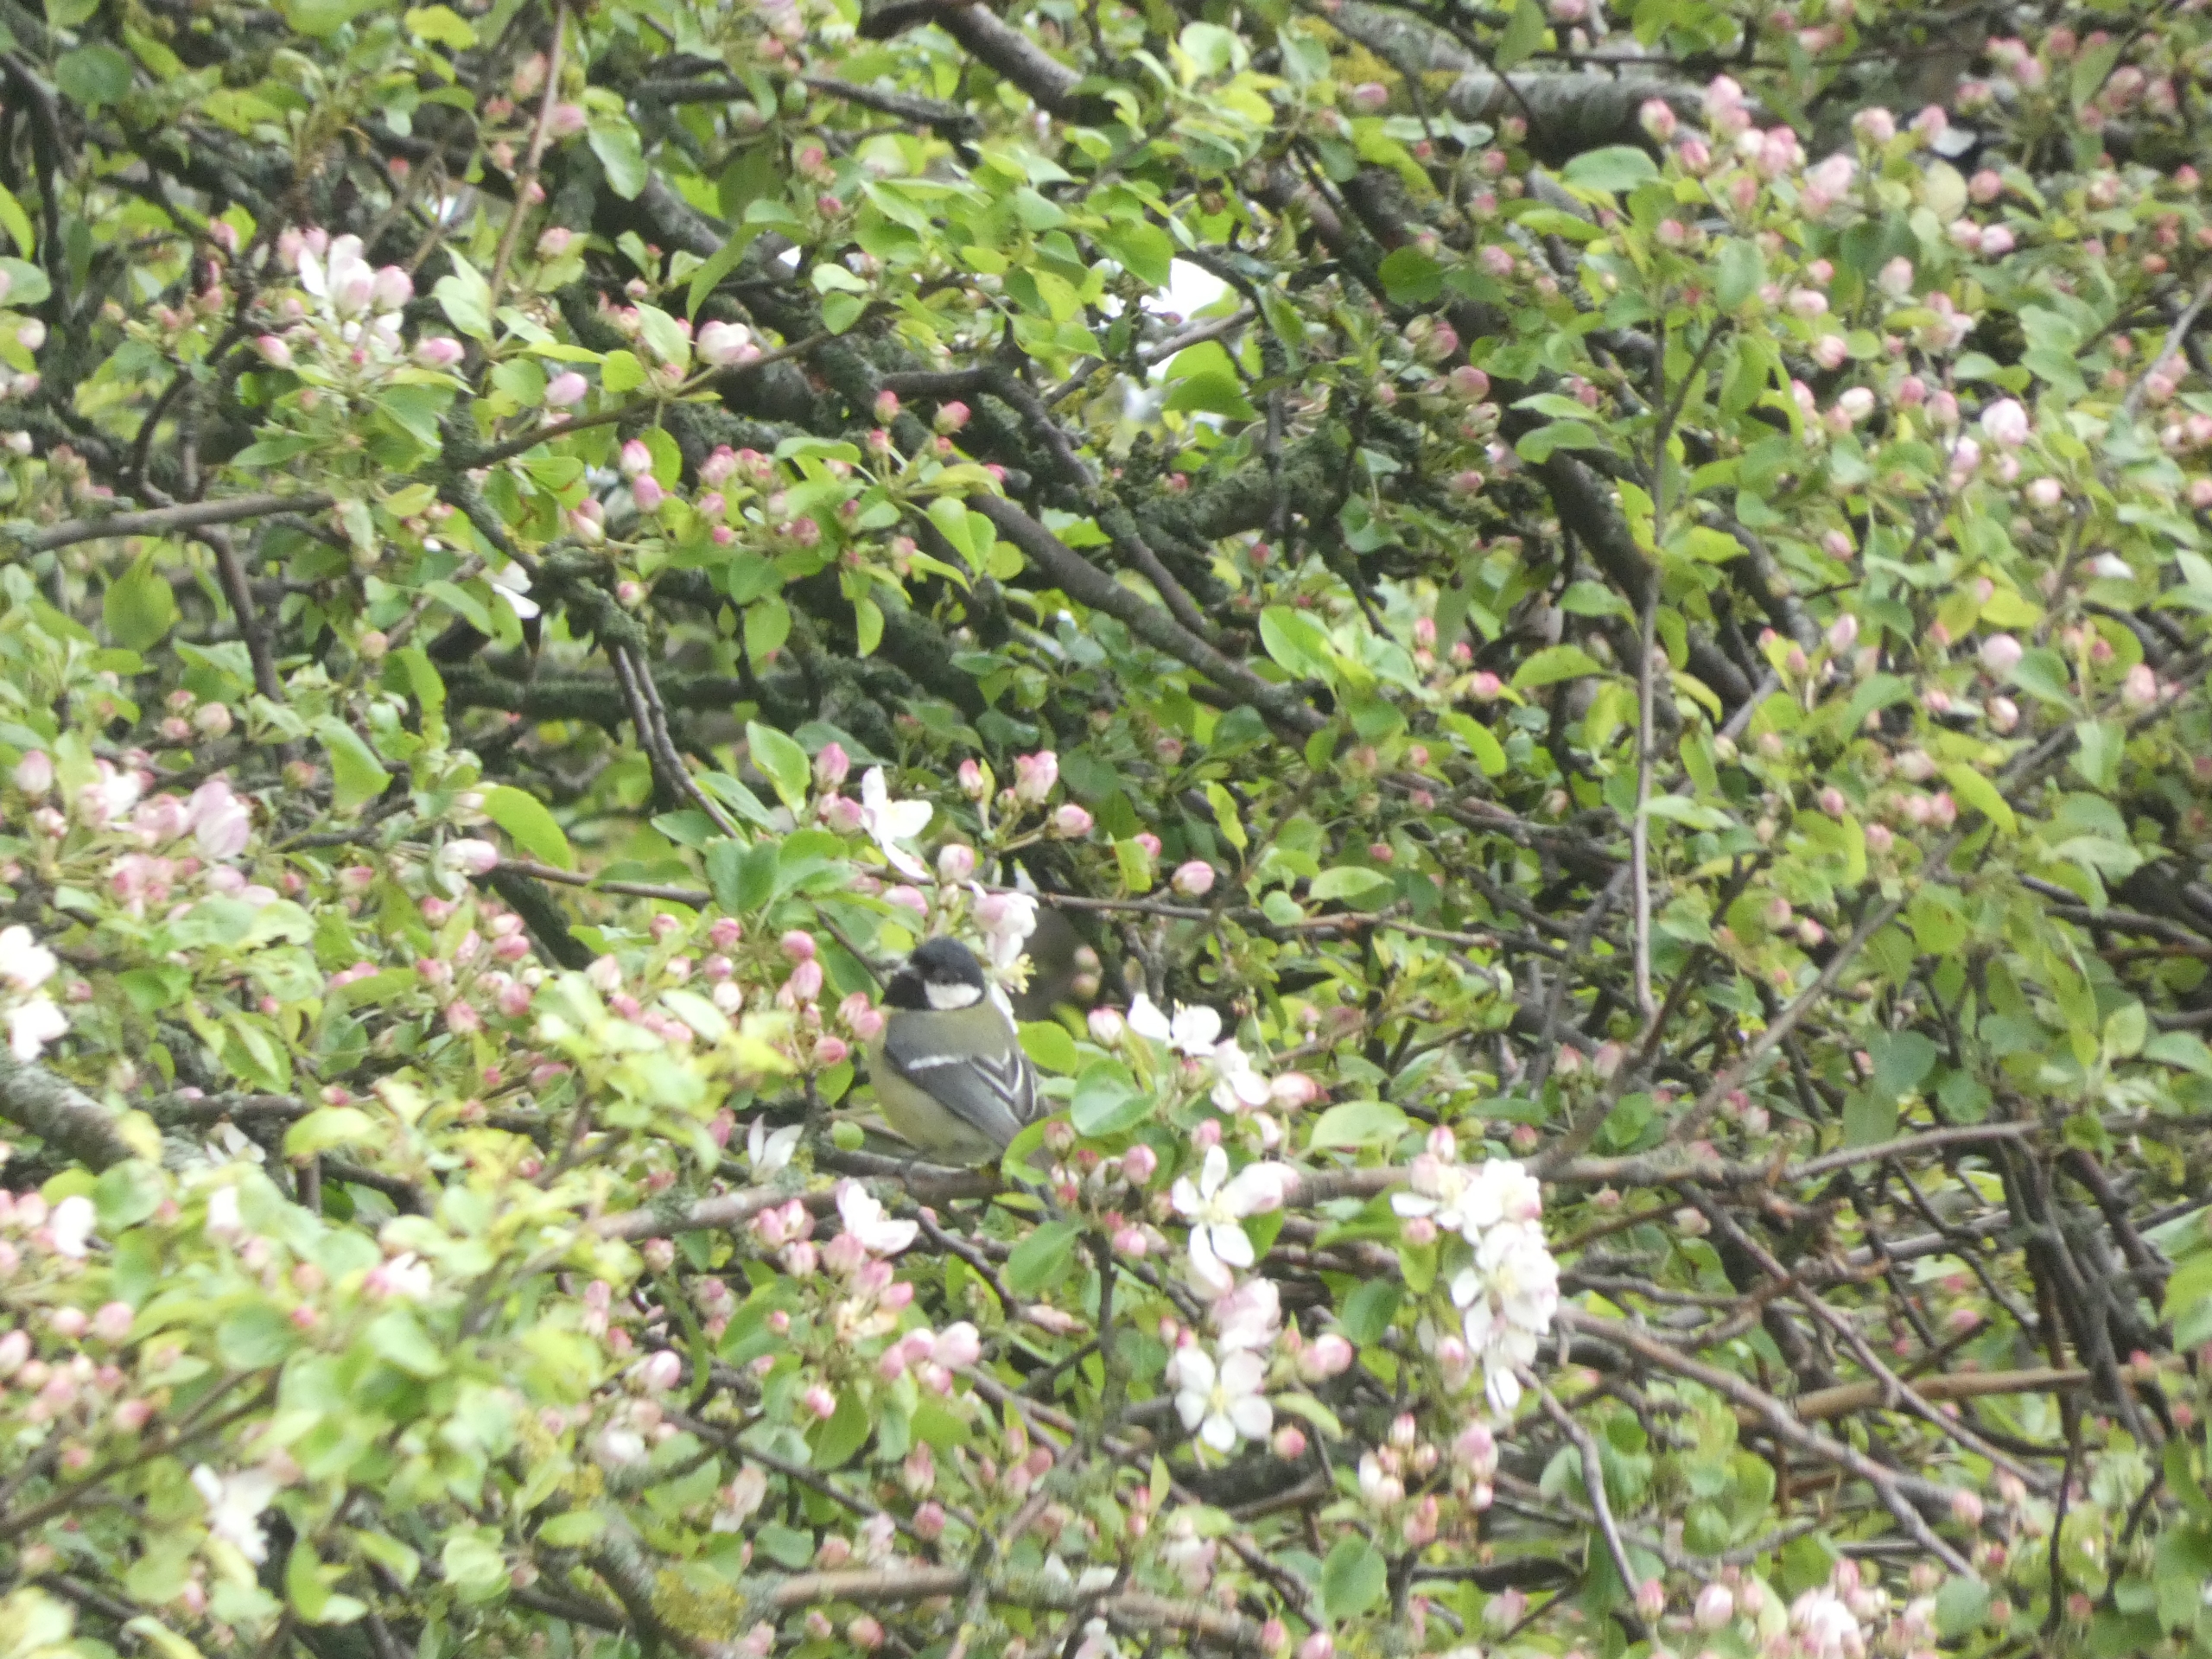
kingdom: Animalia
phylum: Chordata
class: Aves
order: Passeriformes
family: Paridae
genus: Parus
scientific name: Parus major
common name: Musvit
